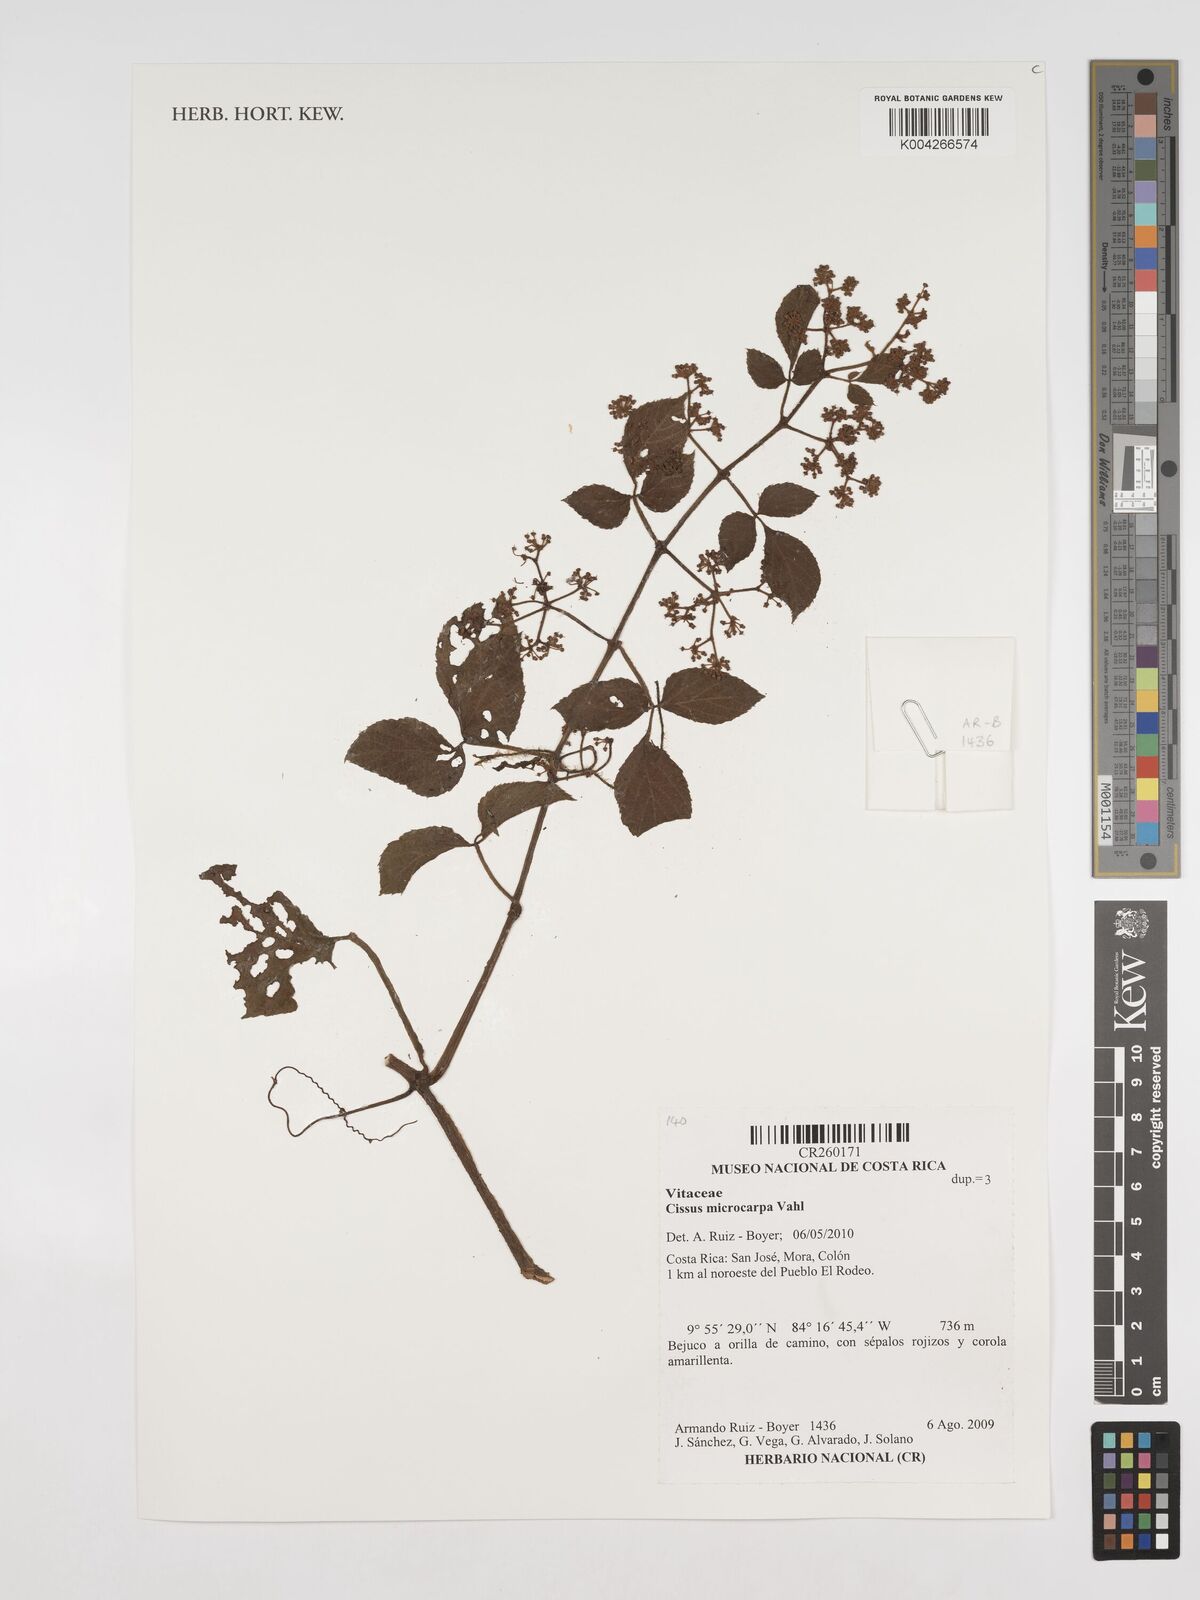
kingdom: Plantae
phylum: Tracheophyta
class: Magnoliopsida
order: Vitales
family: Vitaceae
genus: Cissus
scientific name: Cissus microcarpa
